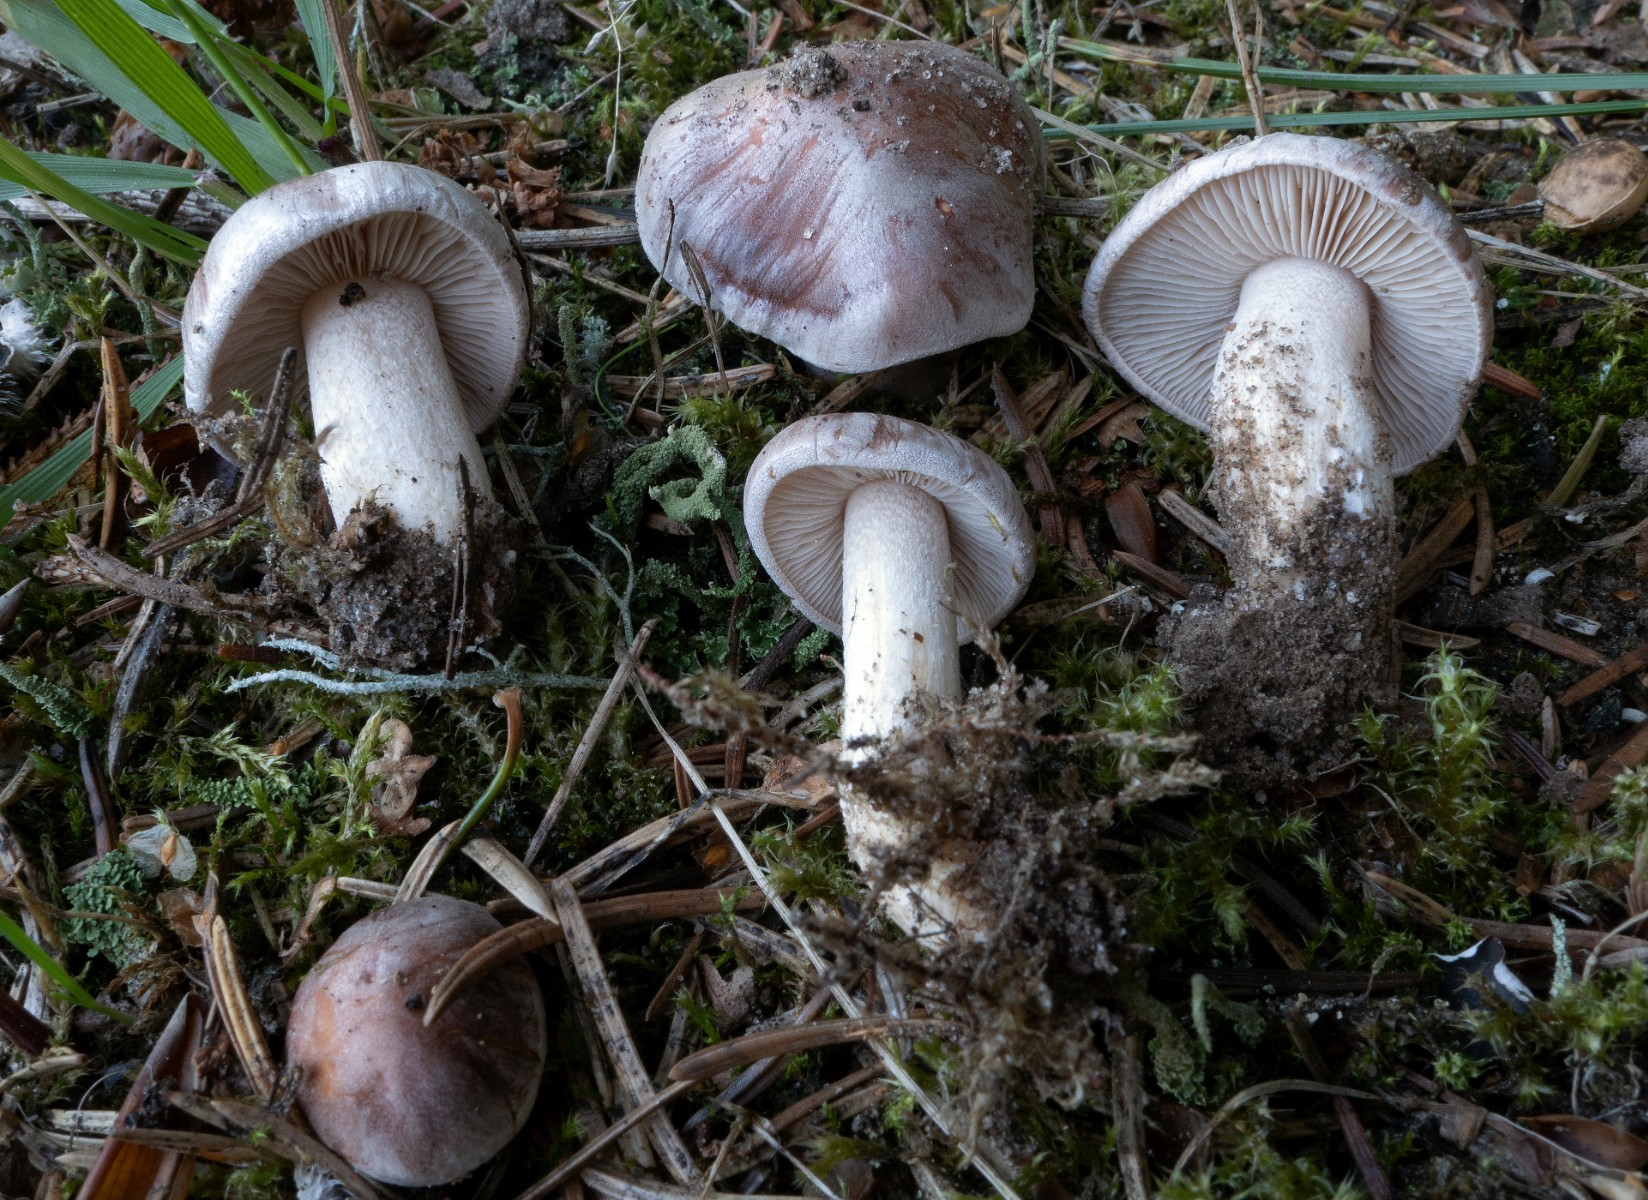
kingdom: Fungi
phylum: Basidiomycota
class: Agaricomycetes
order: Agaricales
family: Hymenogastraceae
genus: Hebeloma
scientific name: Hebeloma theobrominum
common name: rødbrun tåreblad
